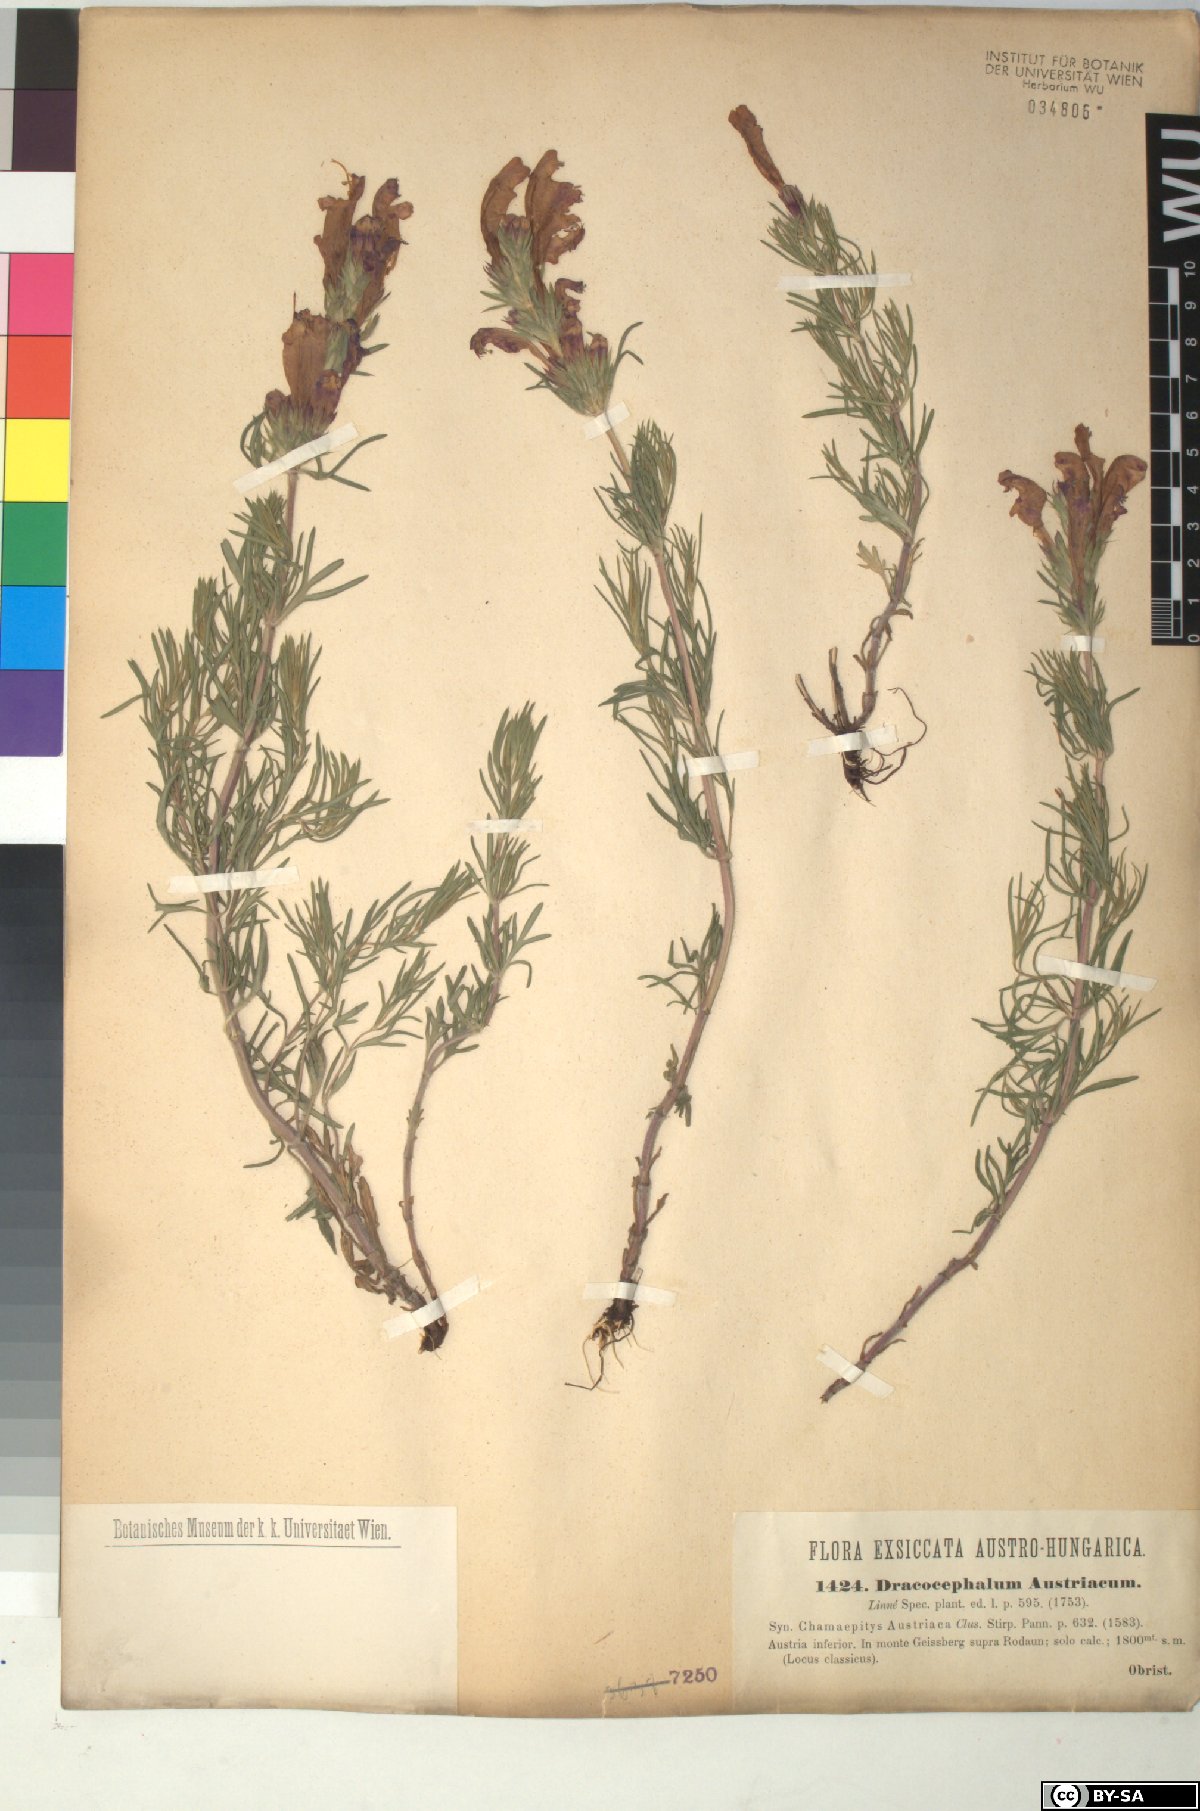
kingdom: Plantae
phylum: Tracheophyta
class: Magnoliopsida
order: Lamiales
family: Lamiaceae
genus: Dracocephalum
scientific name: Dracocephalum austriacum
